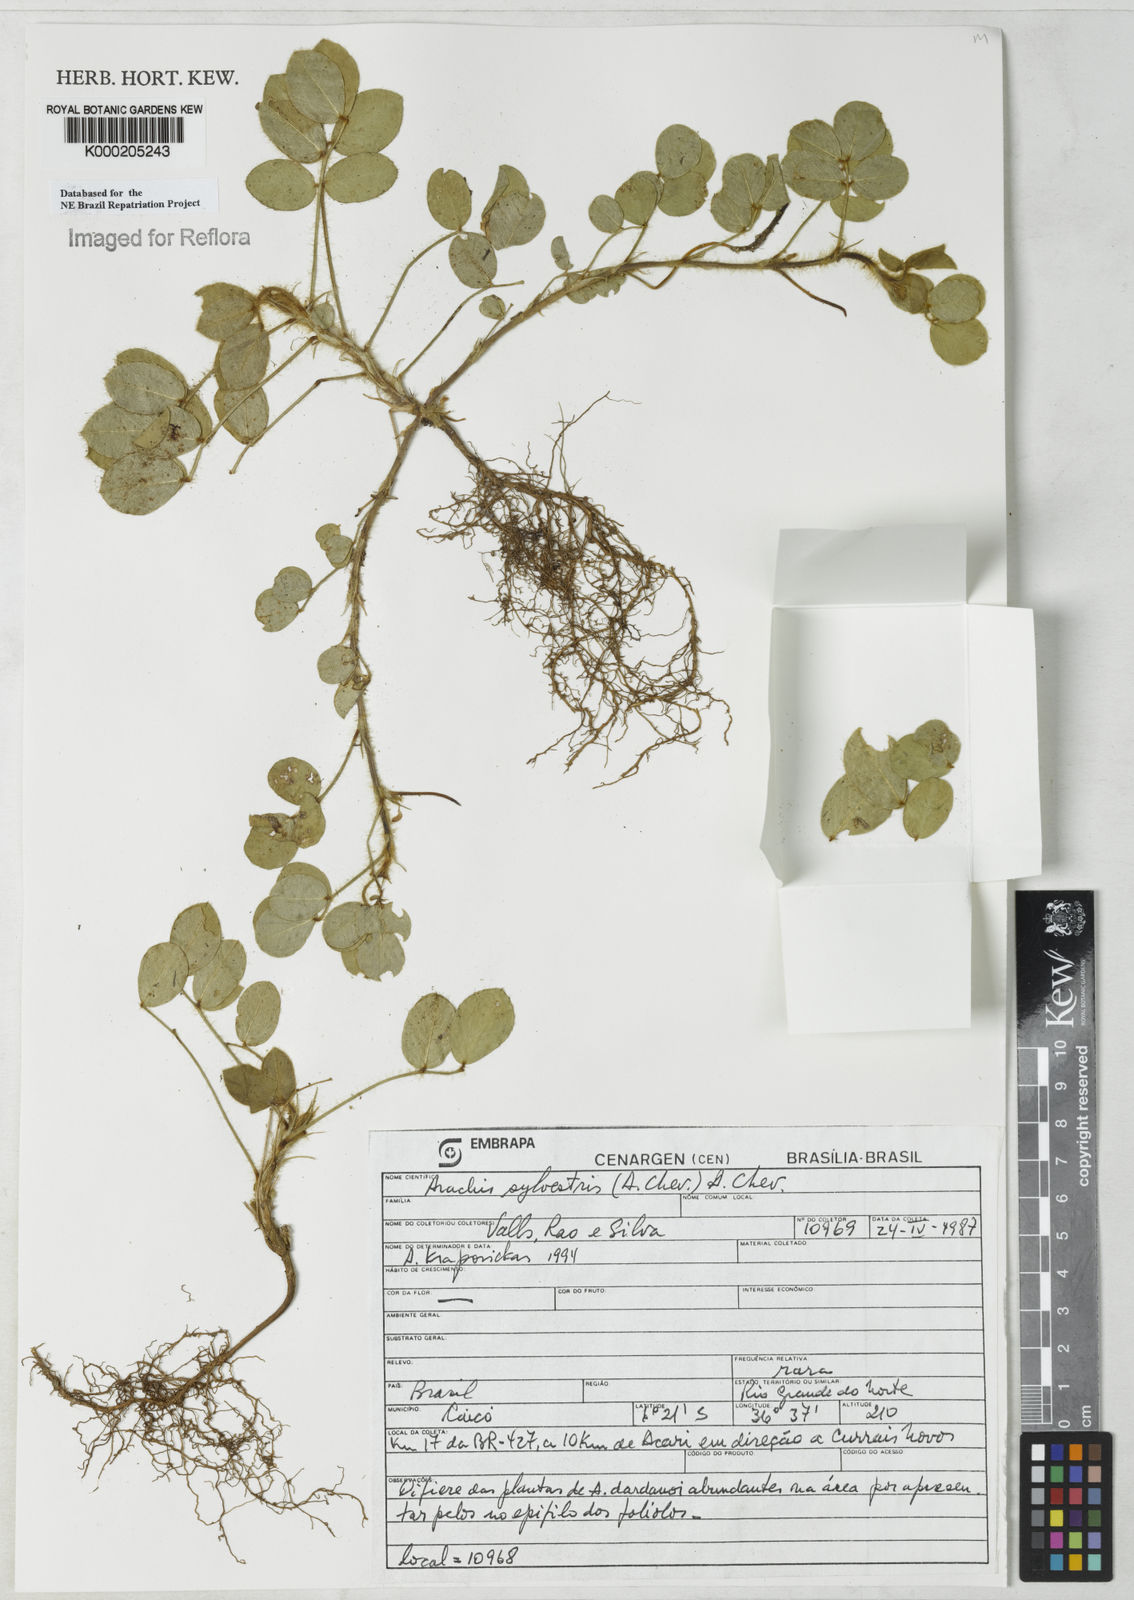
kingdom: Plantae
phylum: Tracheophyta
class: Magnoliopsida
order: Fabales
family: Fabaceae
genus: Arachis
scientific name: Arachis seridoensis
